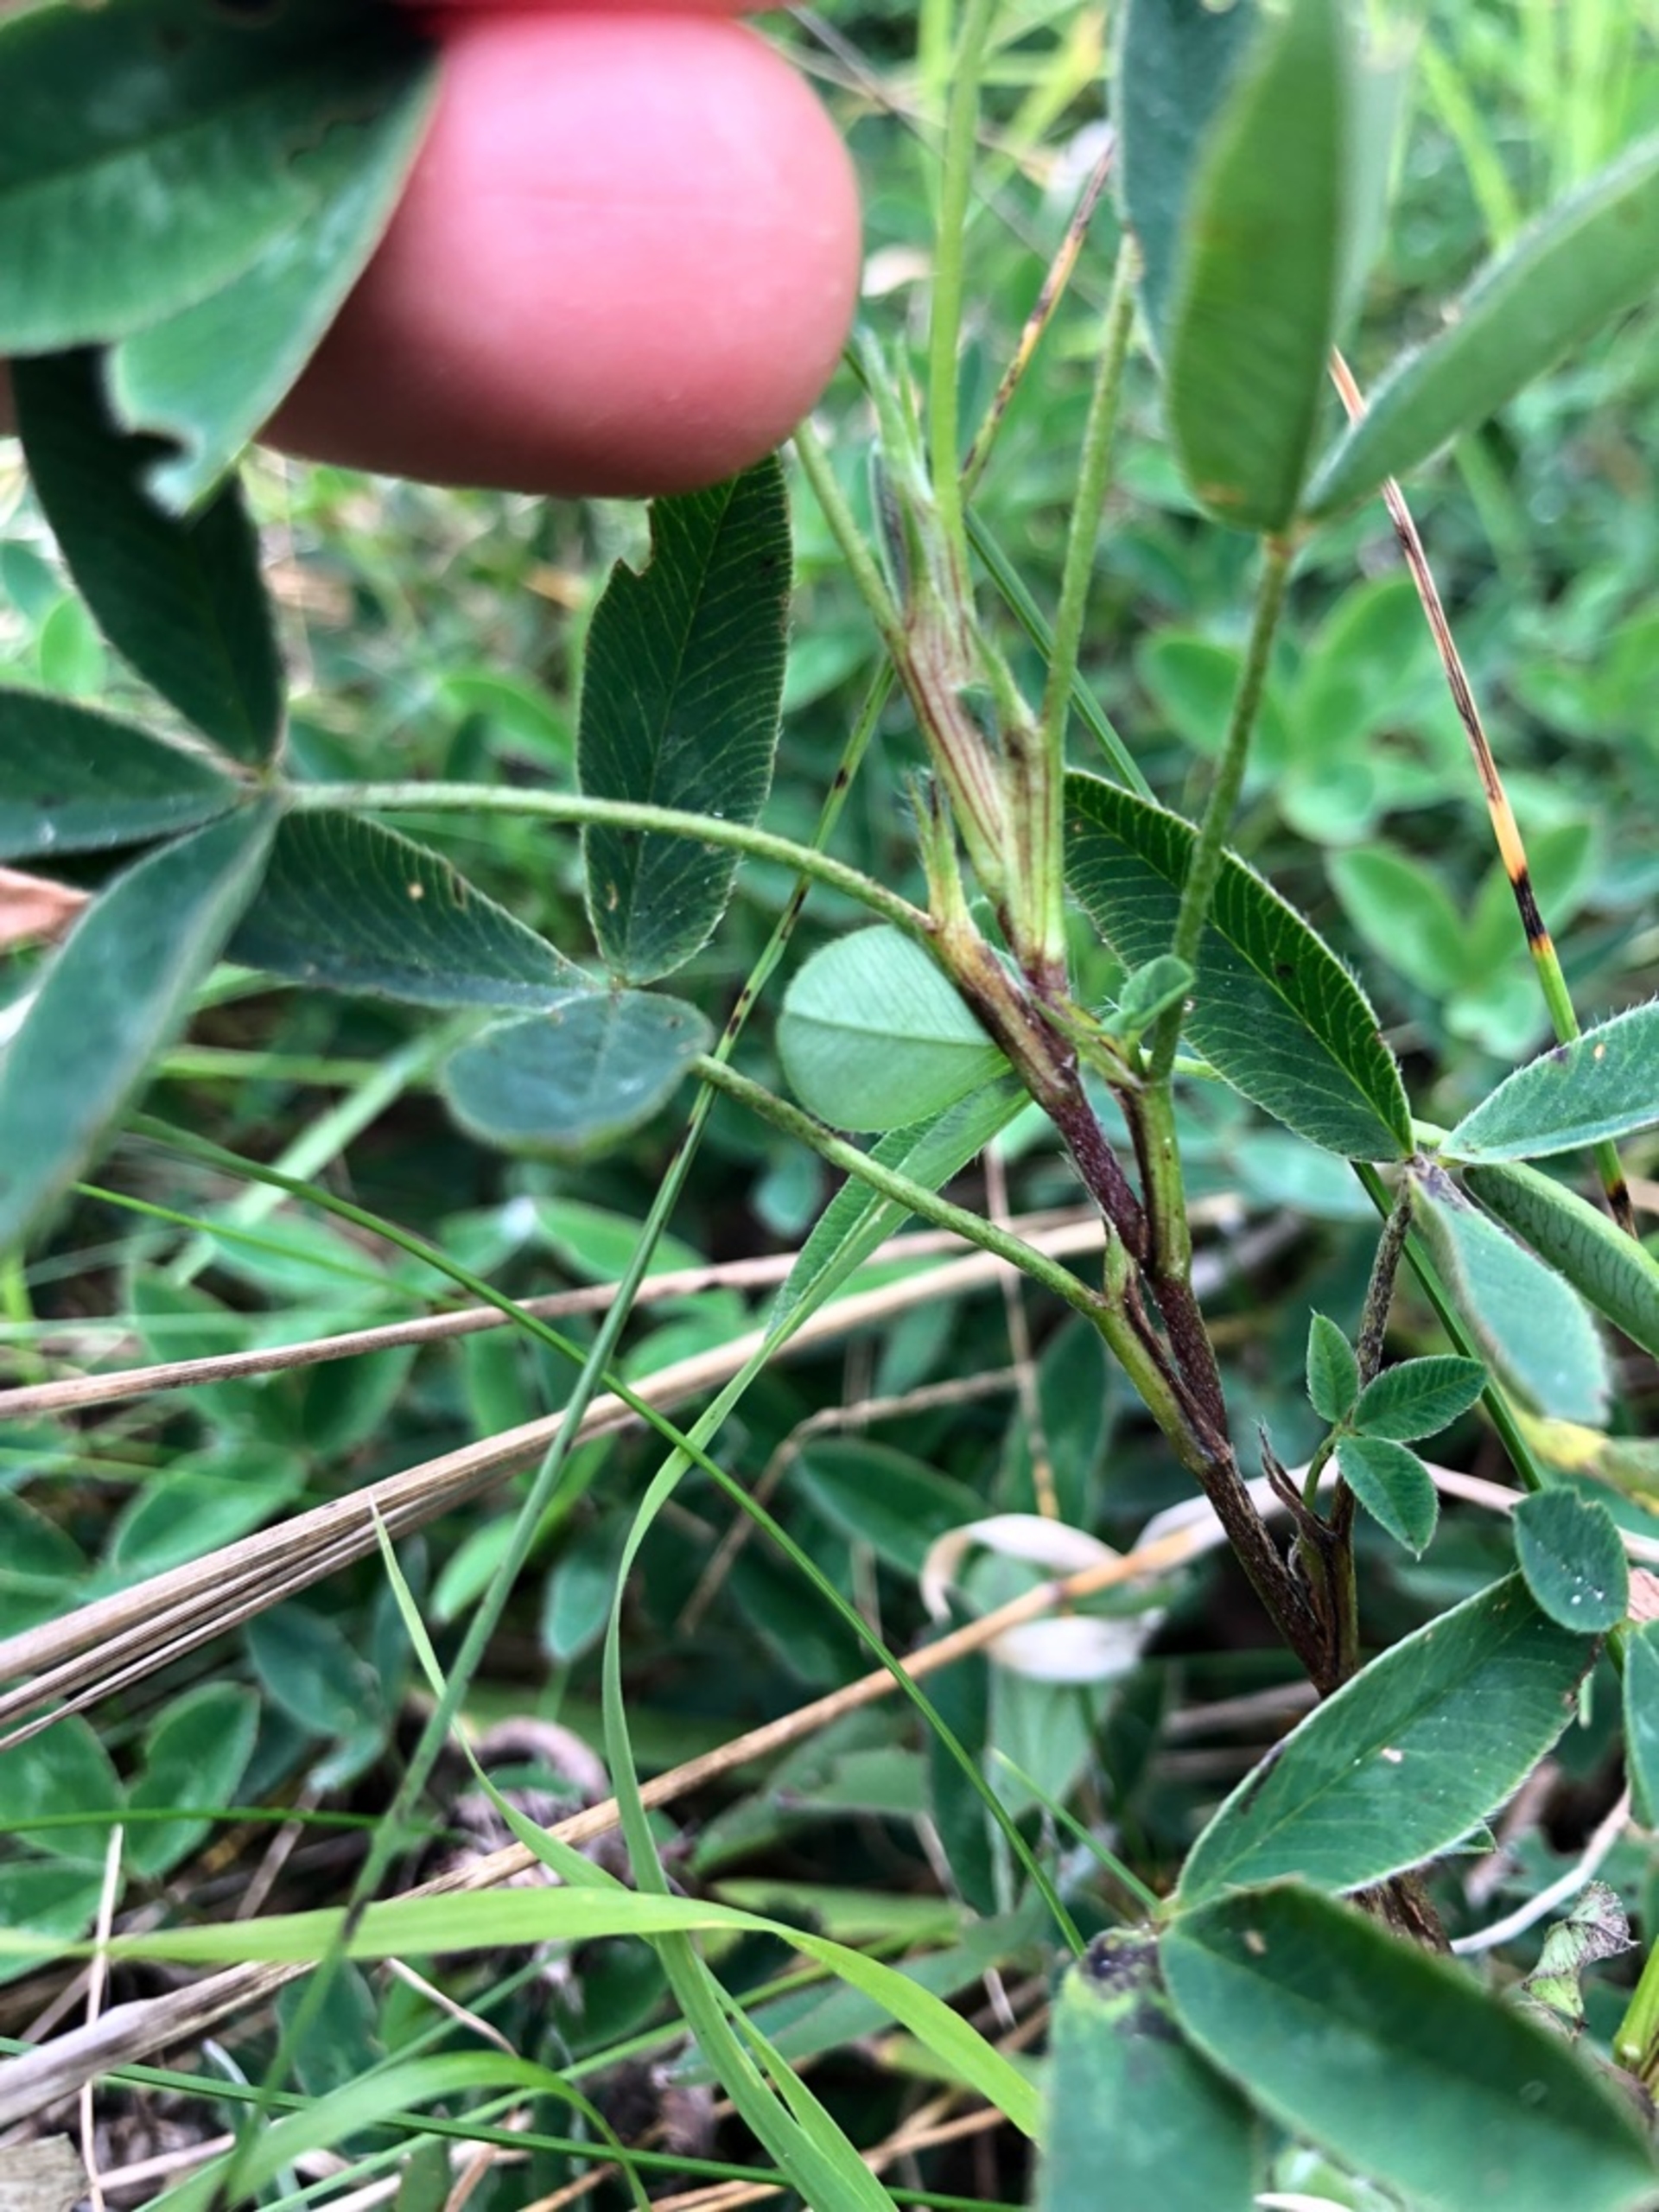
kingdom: Plantae
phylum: Tracheophyta
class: Magnoliopsida
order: Fabales
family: Fabaceae
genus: Trifolium
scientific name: Trifolium medium
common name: Bugtet kløver
